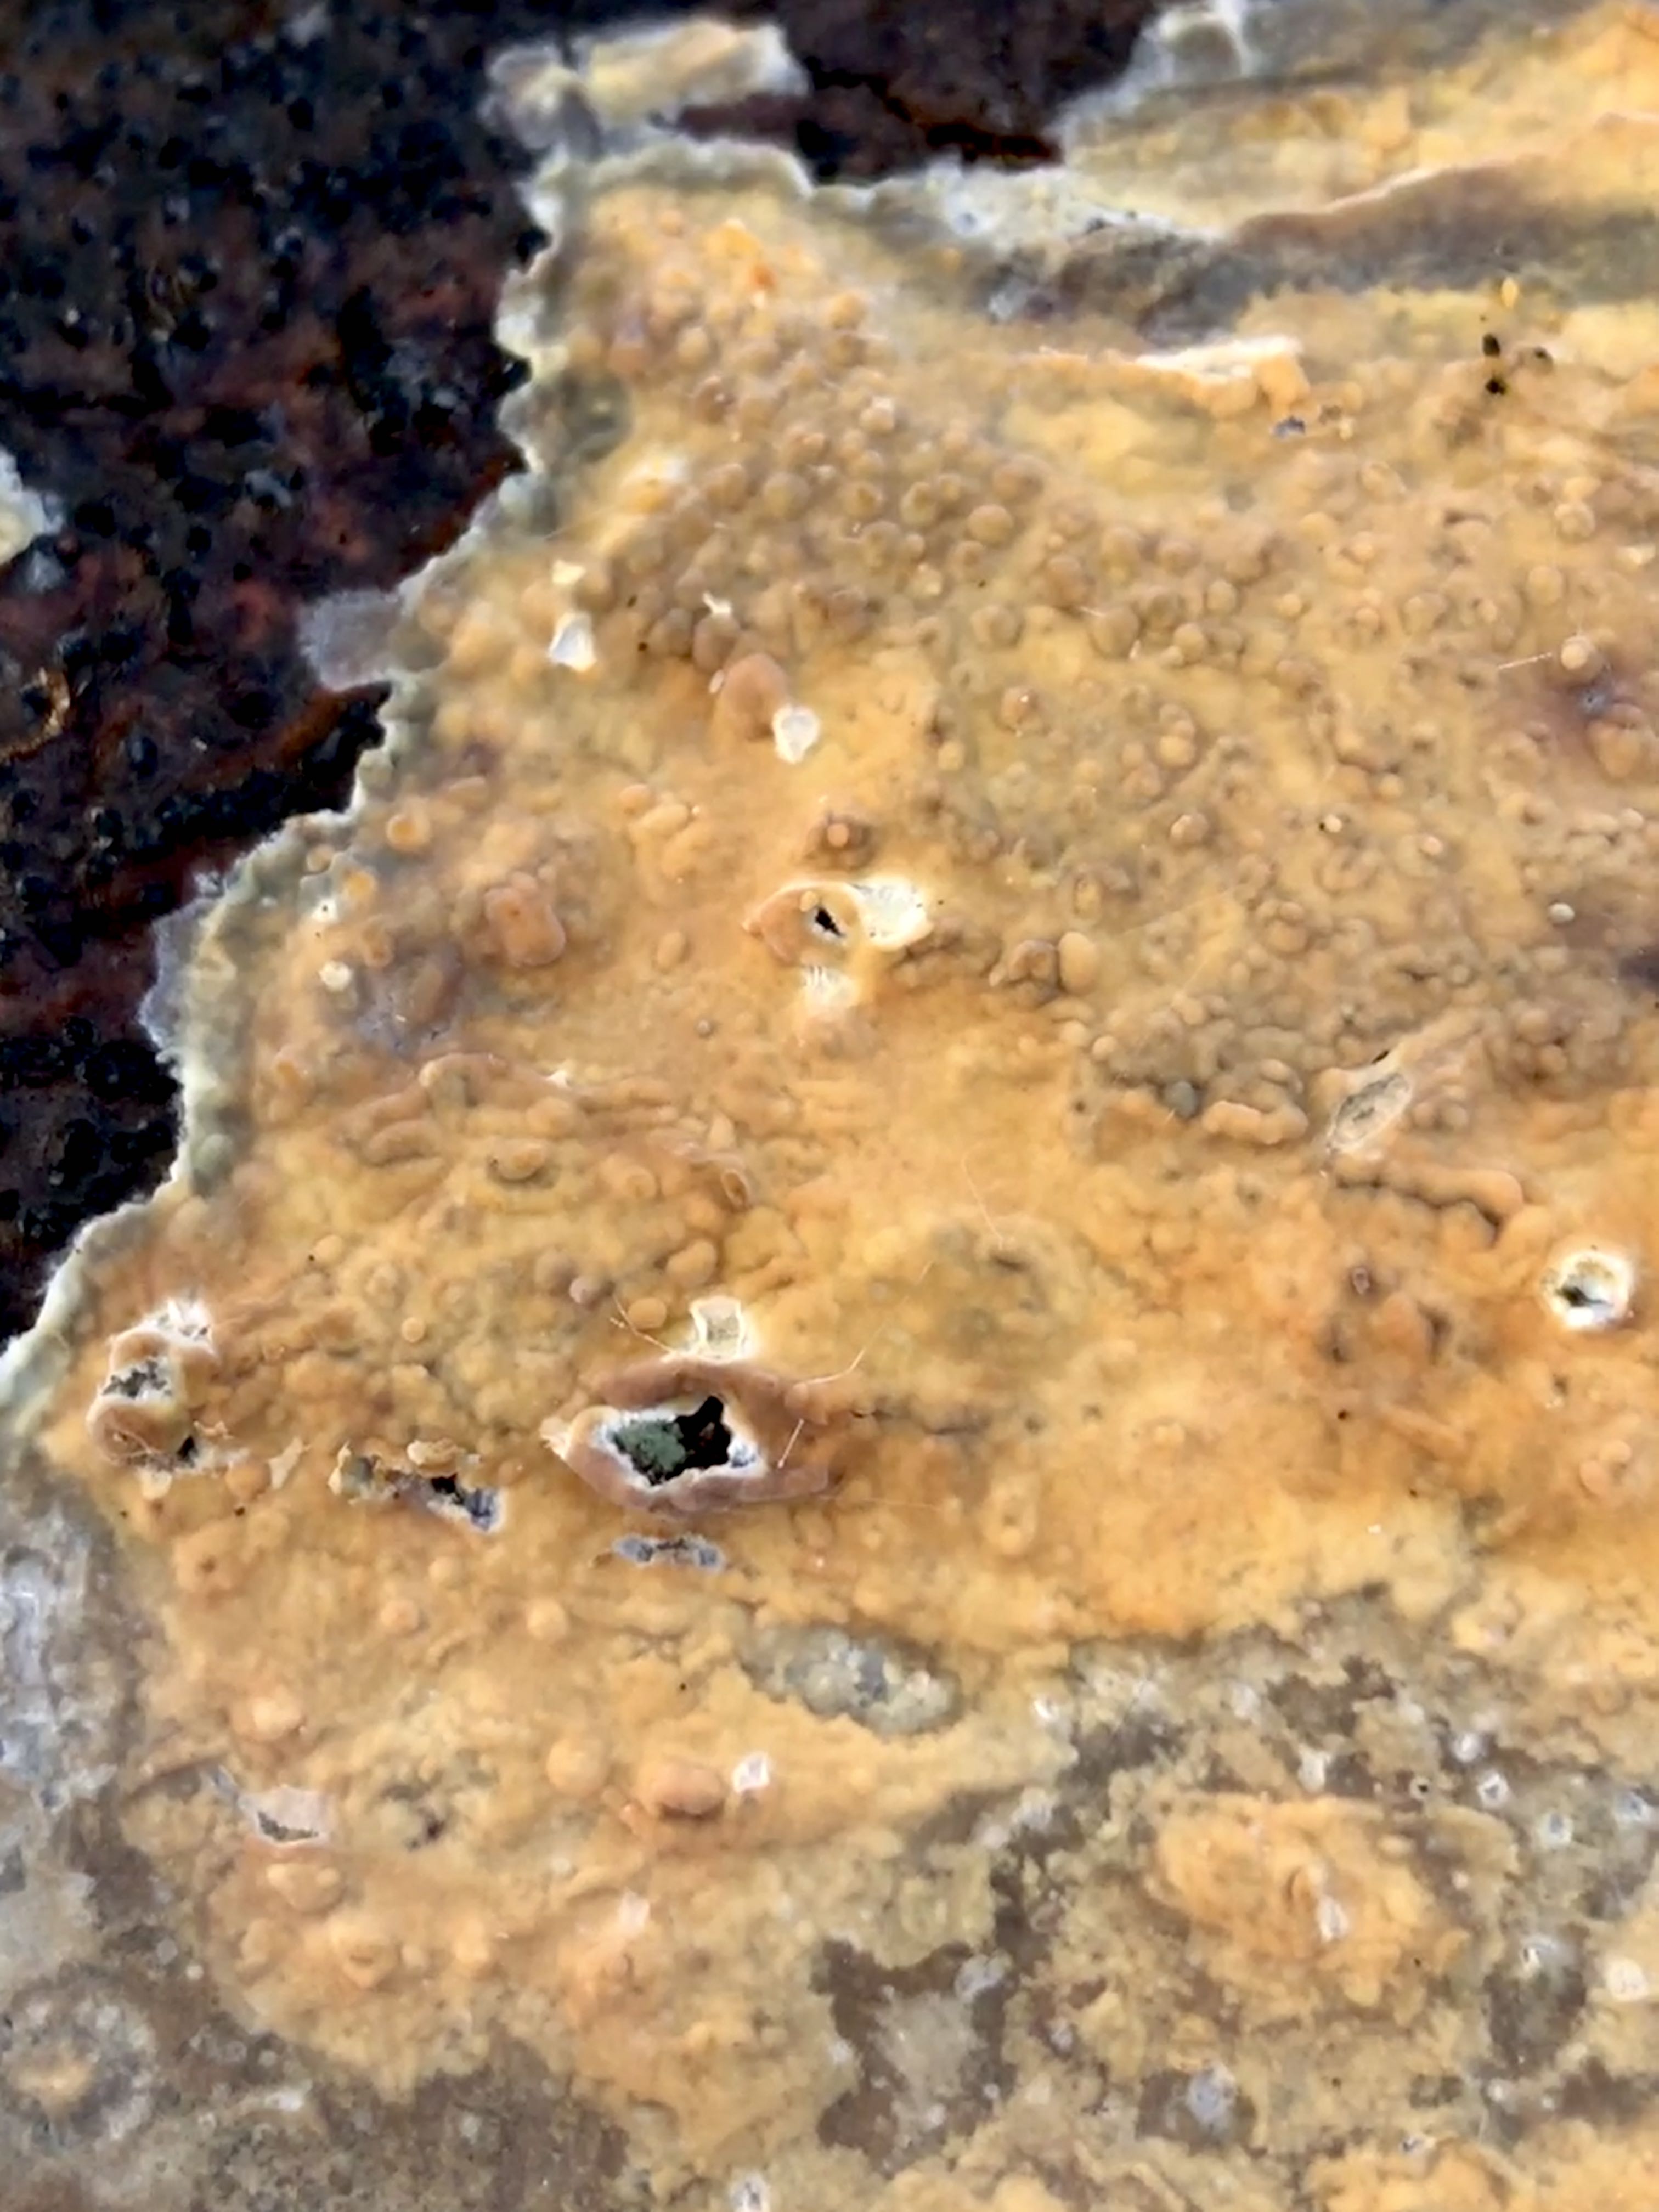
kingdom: Fungi
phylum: Basidiomycota
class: Agaricomycetes
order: Russulales
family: Stereaceae
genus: Stereum
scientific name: Stereum hirsutum
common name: håret lædersvamp
